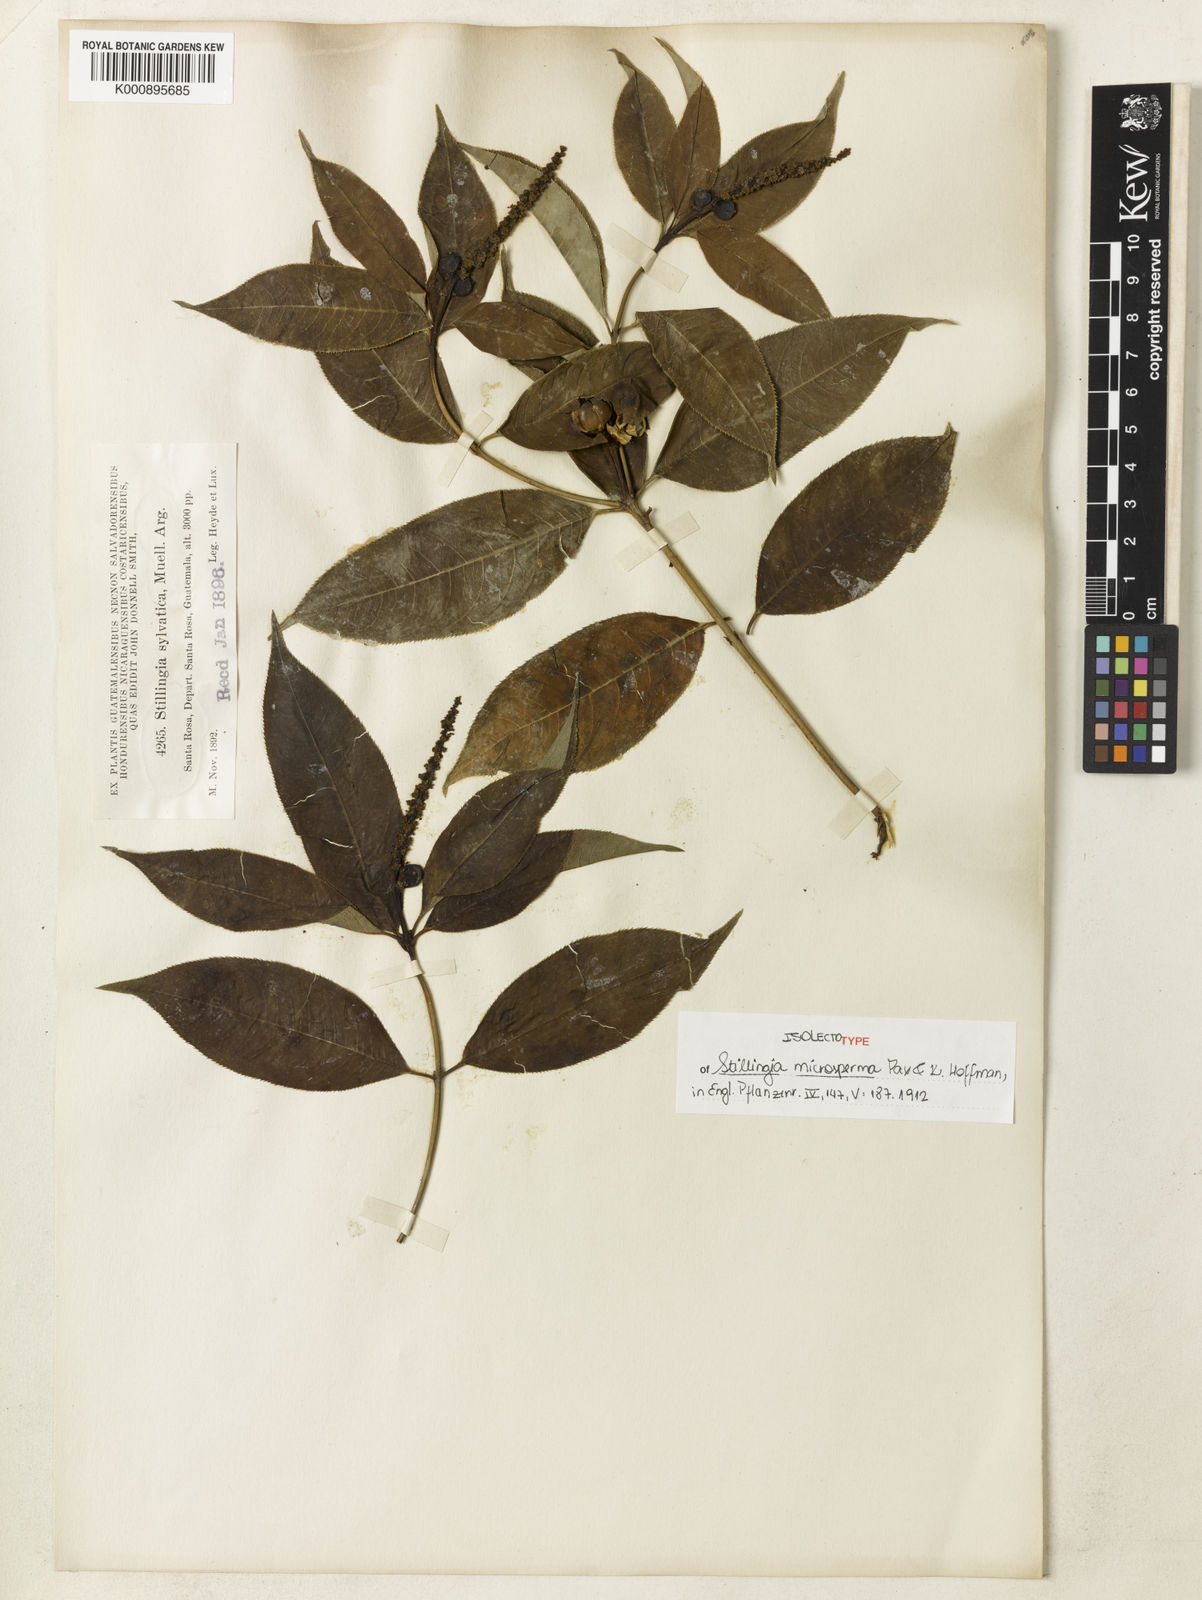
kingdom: Plantae
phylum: Tracheophyta
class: Magnoliopsida
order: Malpighiales
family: Euphorbiaceae
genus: Stillingia
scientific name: Stillingia zelayensis
